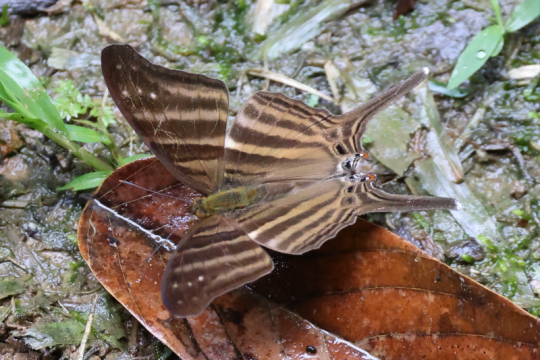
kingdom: Animalia
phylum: Arthropoda
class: Insecta
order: Lepidoptera
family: Nymphalidae
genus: Marpesia
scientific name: Marpesia chiron
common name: Many-banded Daggerwing
